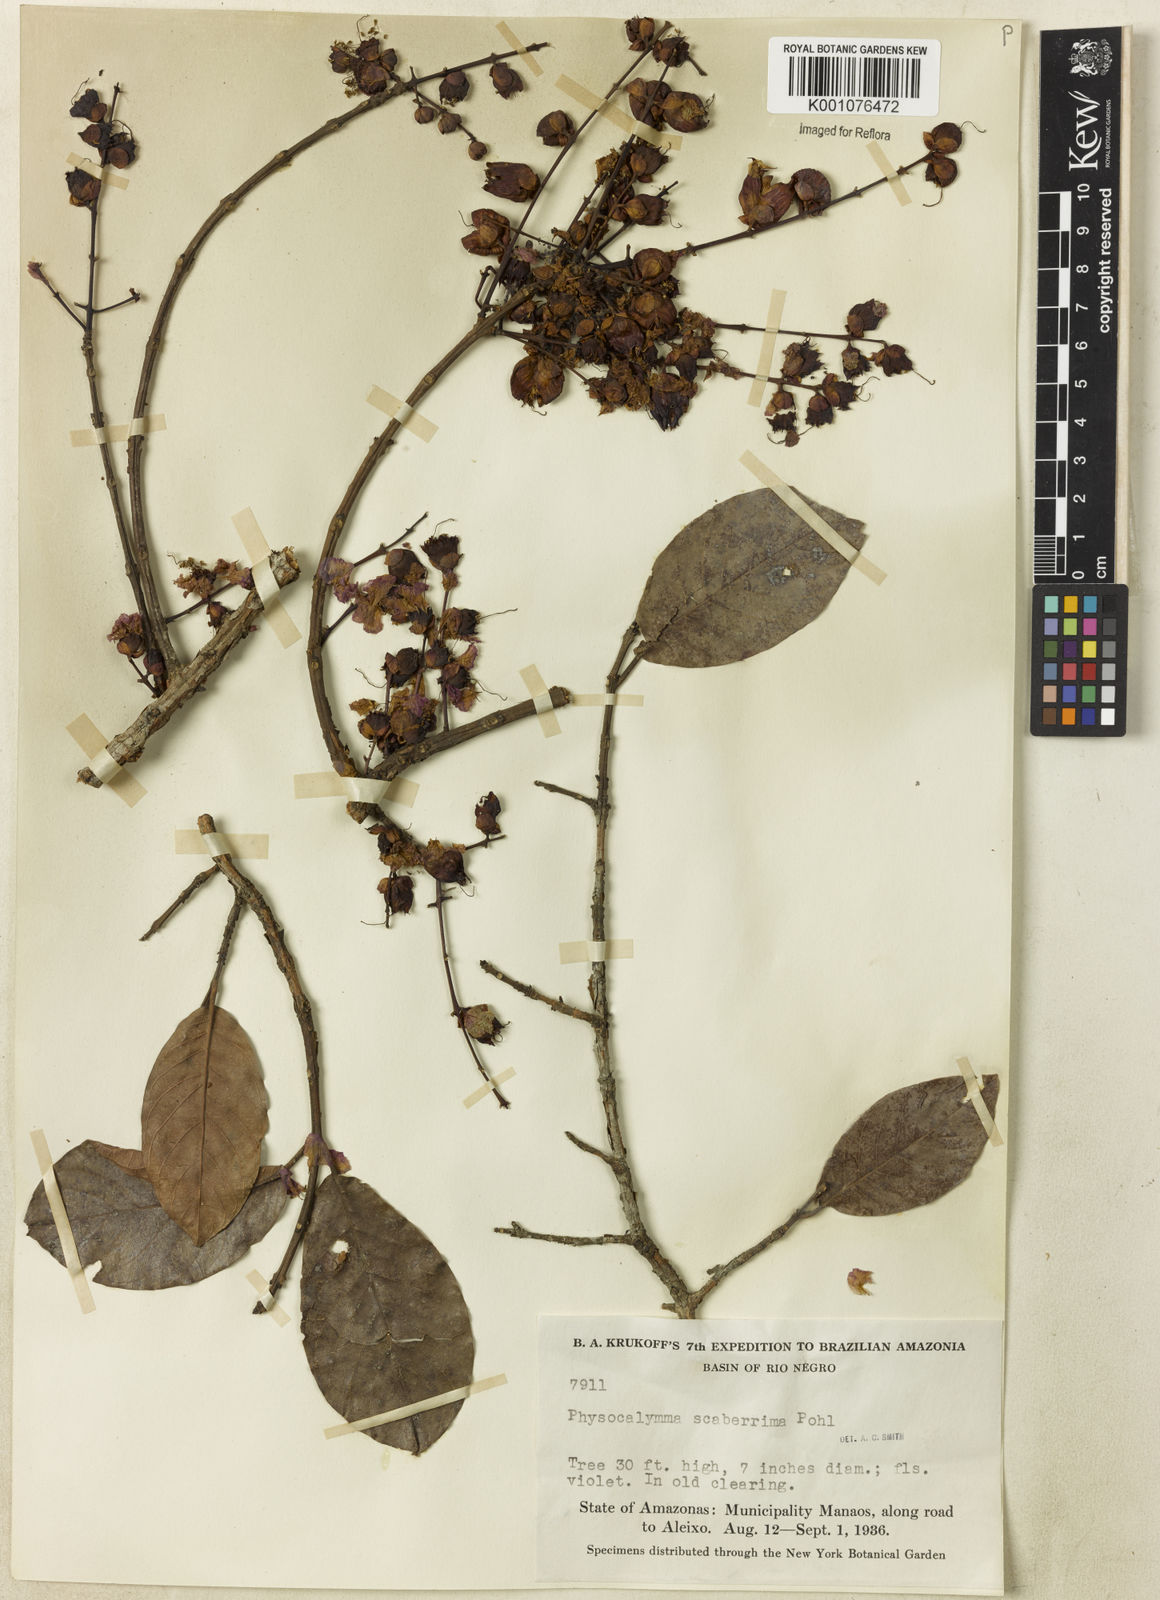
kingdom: Plantae
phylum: Tracheophyta
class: Magnoliopsida
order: Myrtales
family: Lythraceae
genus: Physocalymma
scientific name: Physocalymma scaberrimum
